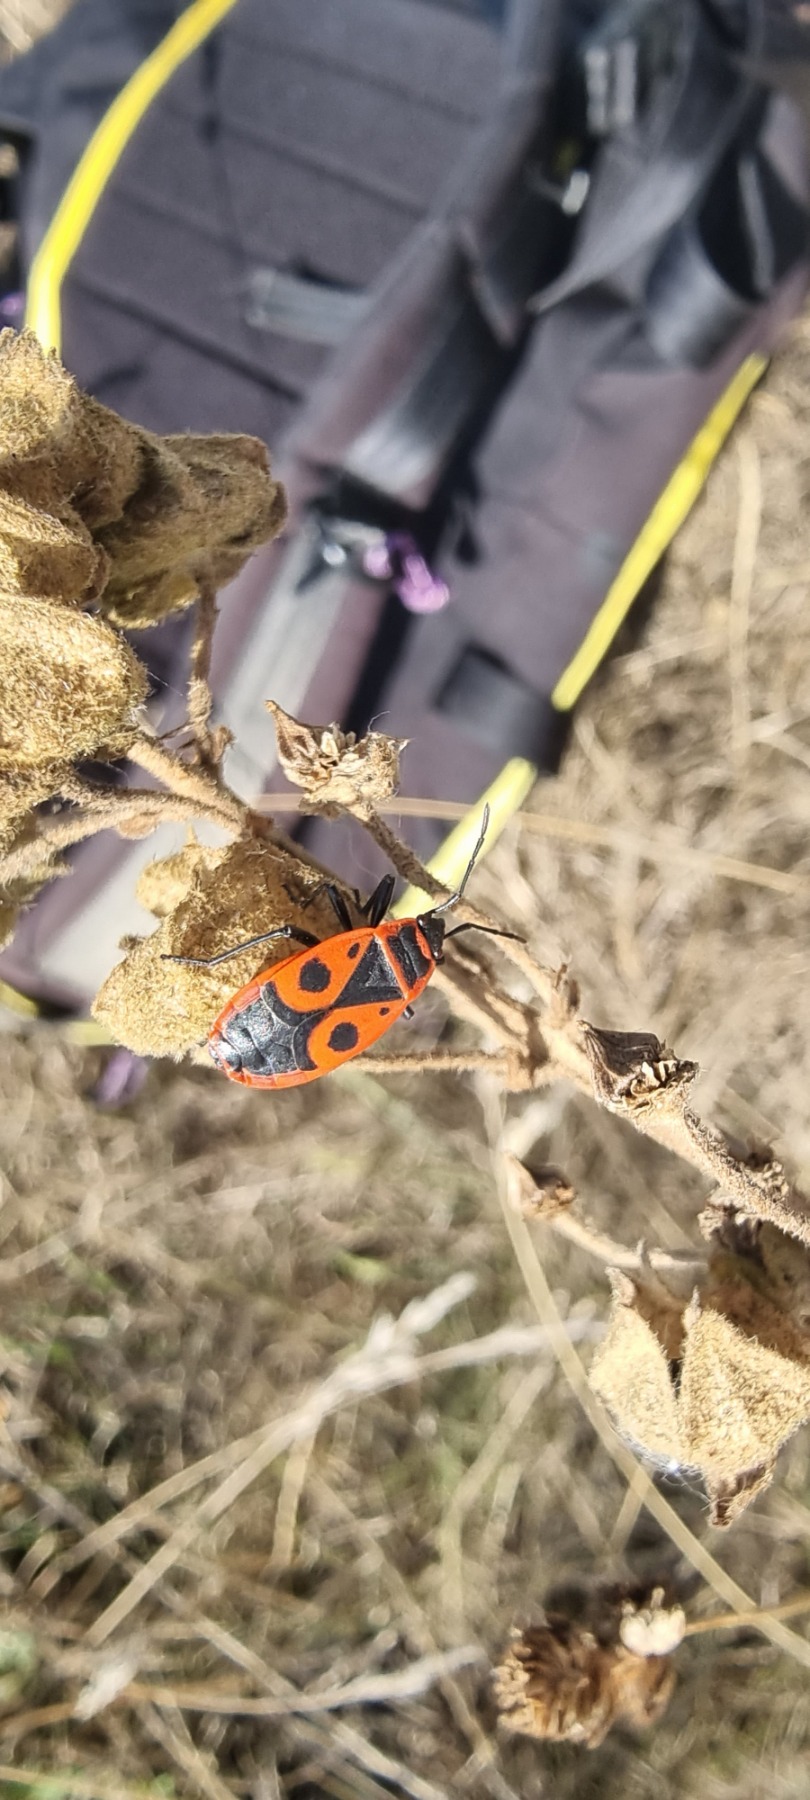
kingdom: Animalia
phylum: Arthropoda
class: Insecta
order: Hemiptera
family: Pyrrhocoridae
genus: Pyrrhocoris
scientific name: Pyrrhocoris apterus
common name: Ildtæge
